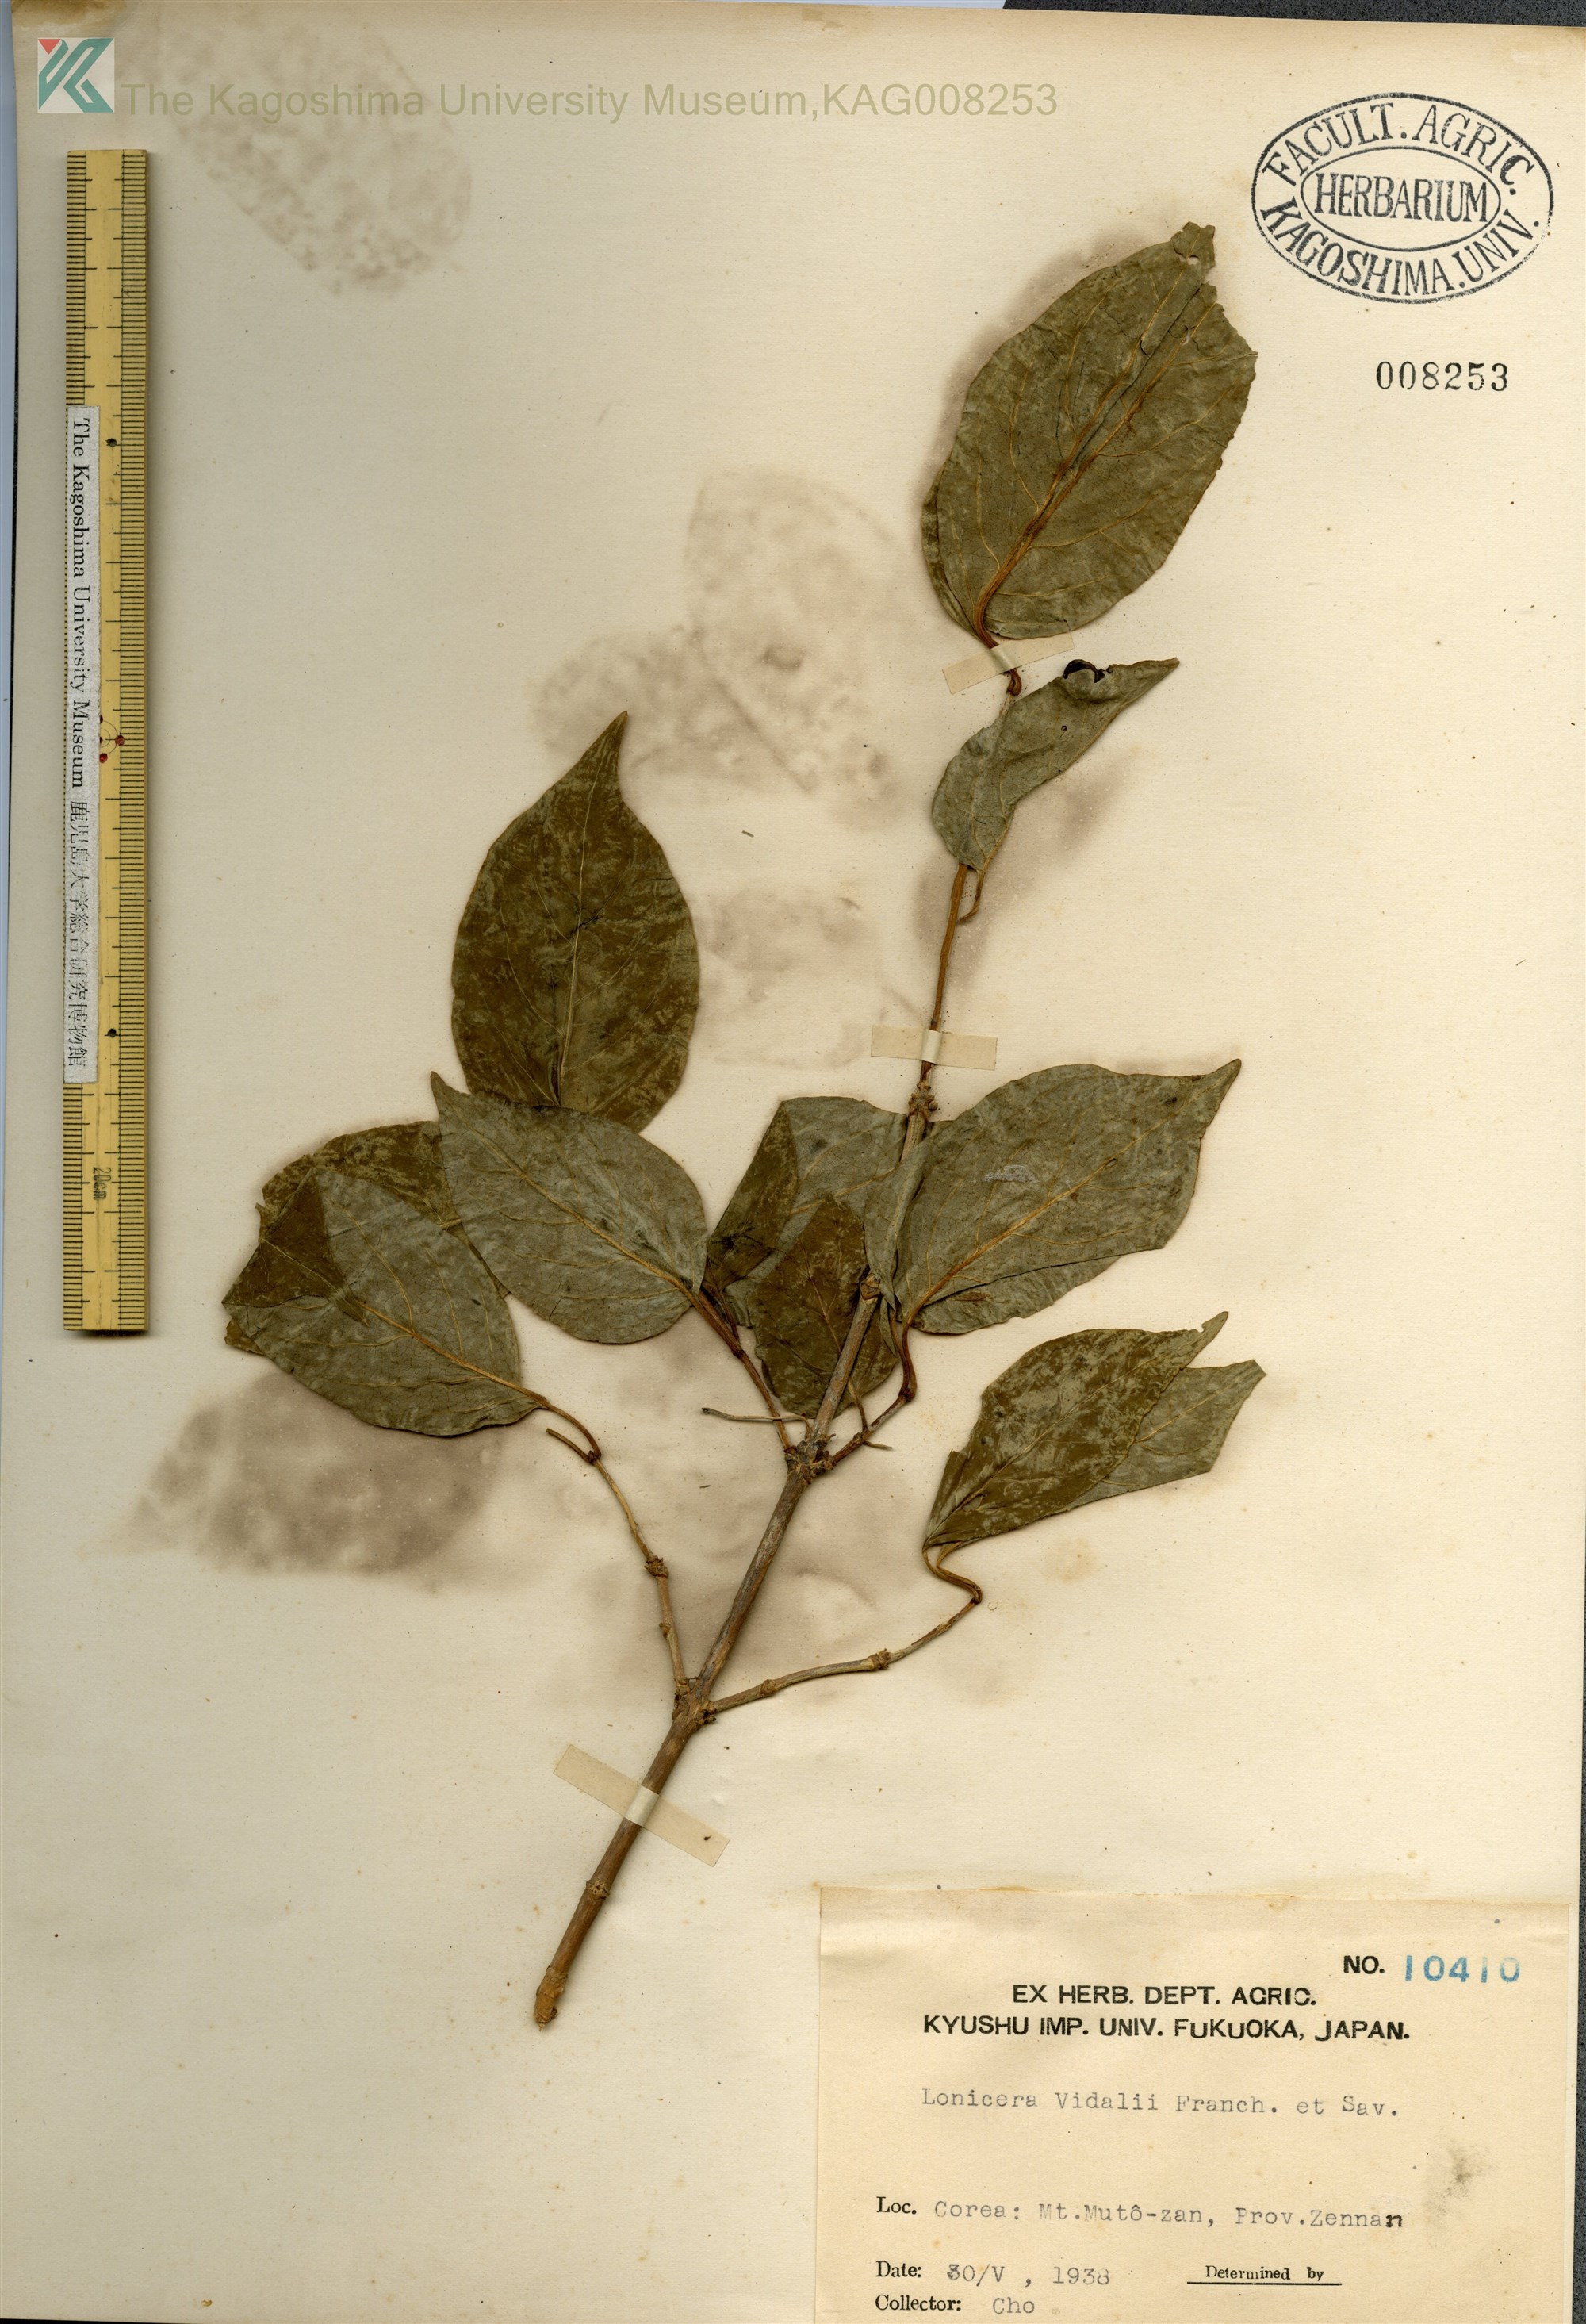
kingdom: Plantae
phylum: Tracheophyta
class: Magnoliopsida
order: Dipsacales
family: Caprifoliaceae
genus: Lonicera
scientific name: Lonicera vidalii
